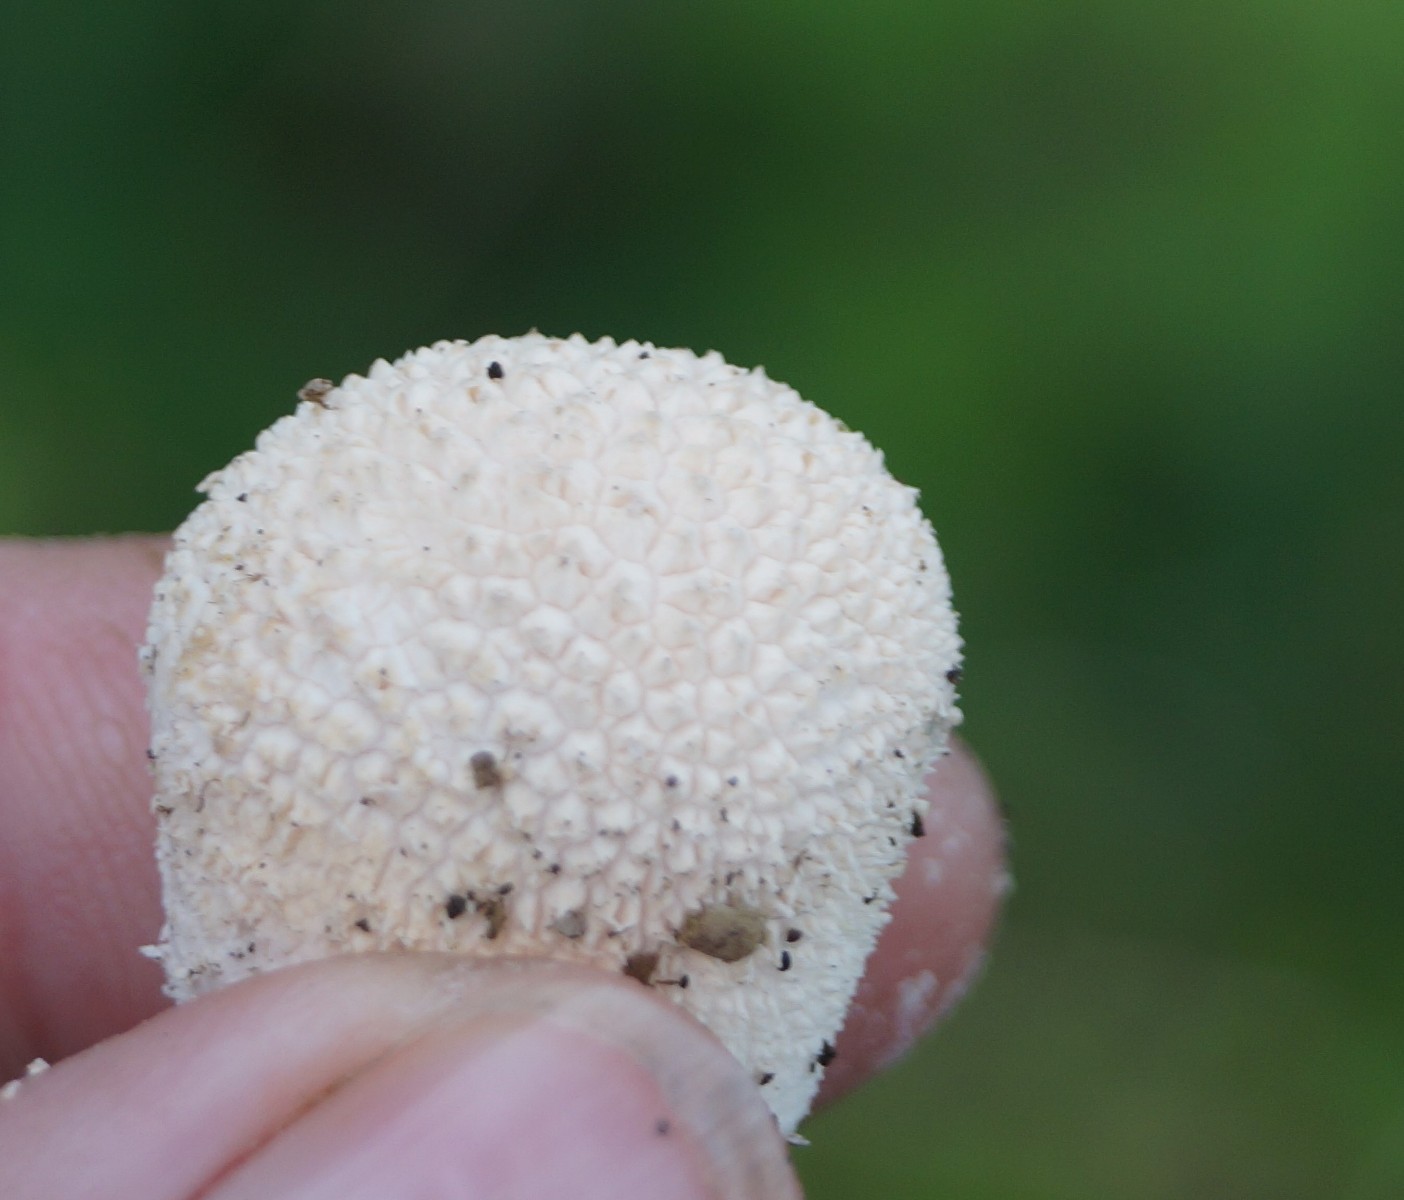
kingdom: Fungi
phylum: Basidiomycota
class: Agaricomycetes
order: Agaricales
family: Lycoperdaceae
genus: Lycoperdon
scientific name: Lycoperdon pratense
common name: flad støvbold
